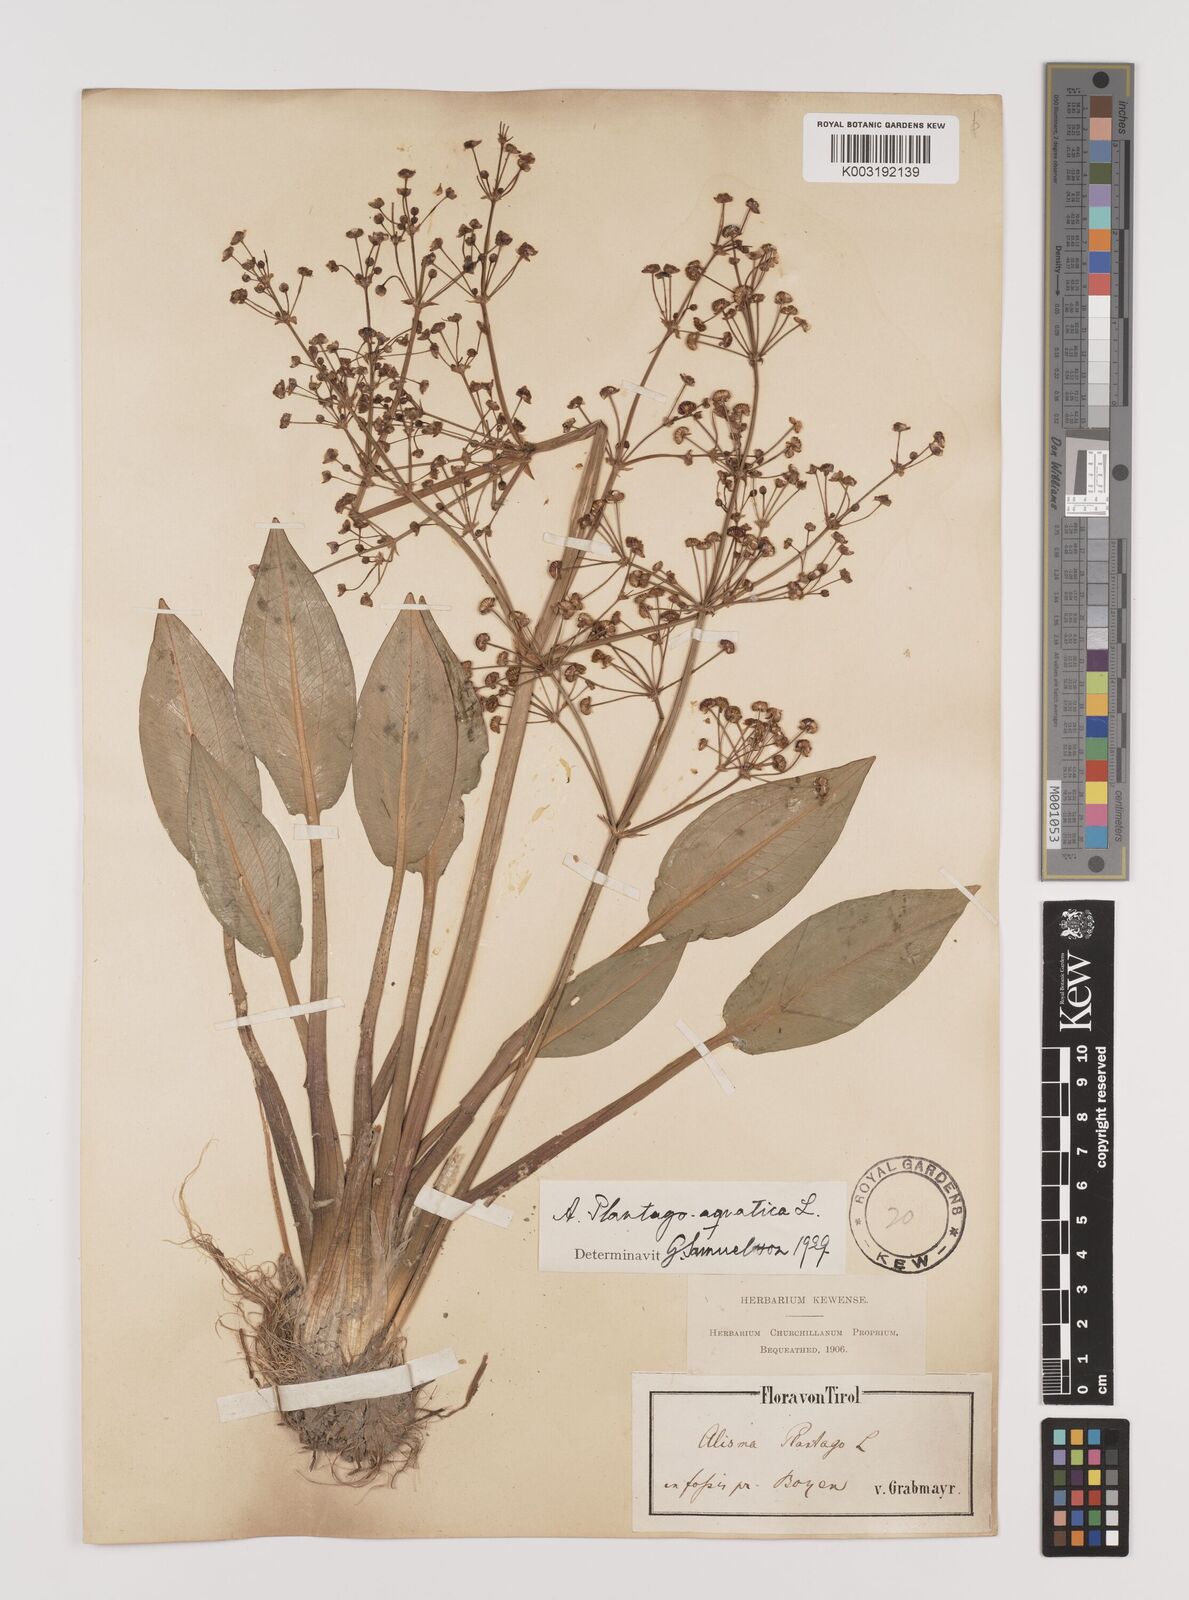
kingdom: Plantae
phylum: Tracheophyta
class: Liliopsida
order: Alismatales
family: Alismataceae
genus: Alisma
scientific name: Alisma plantago-aquatica
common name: Water-plantain
